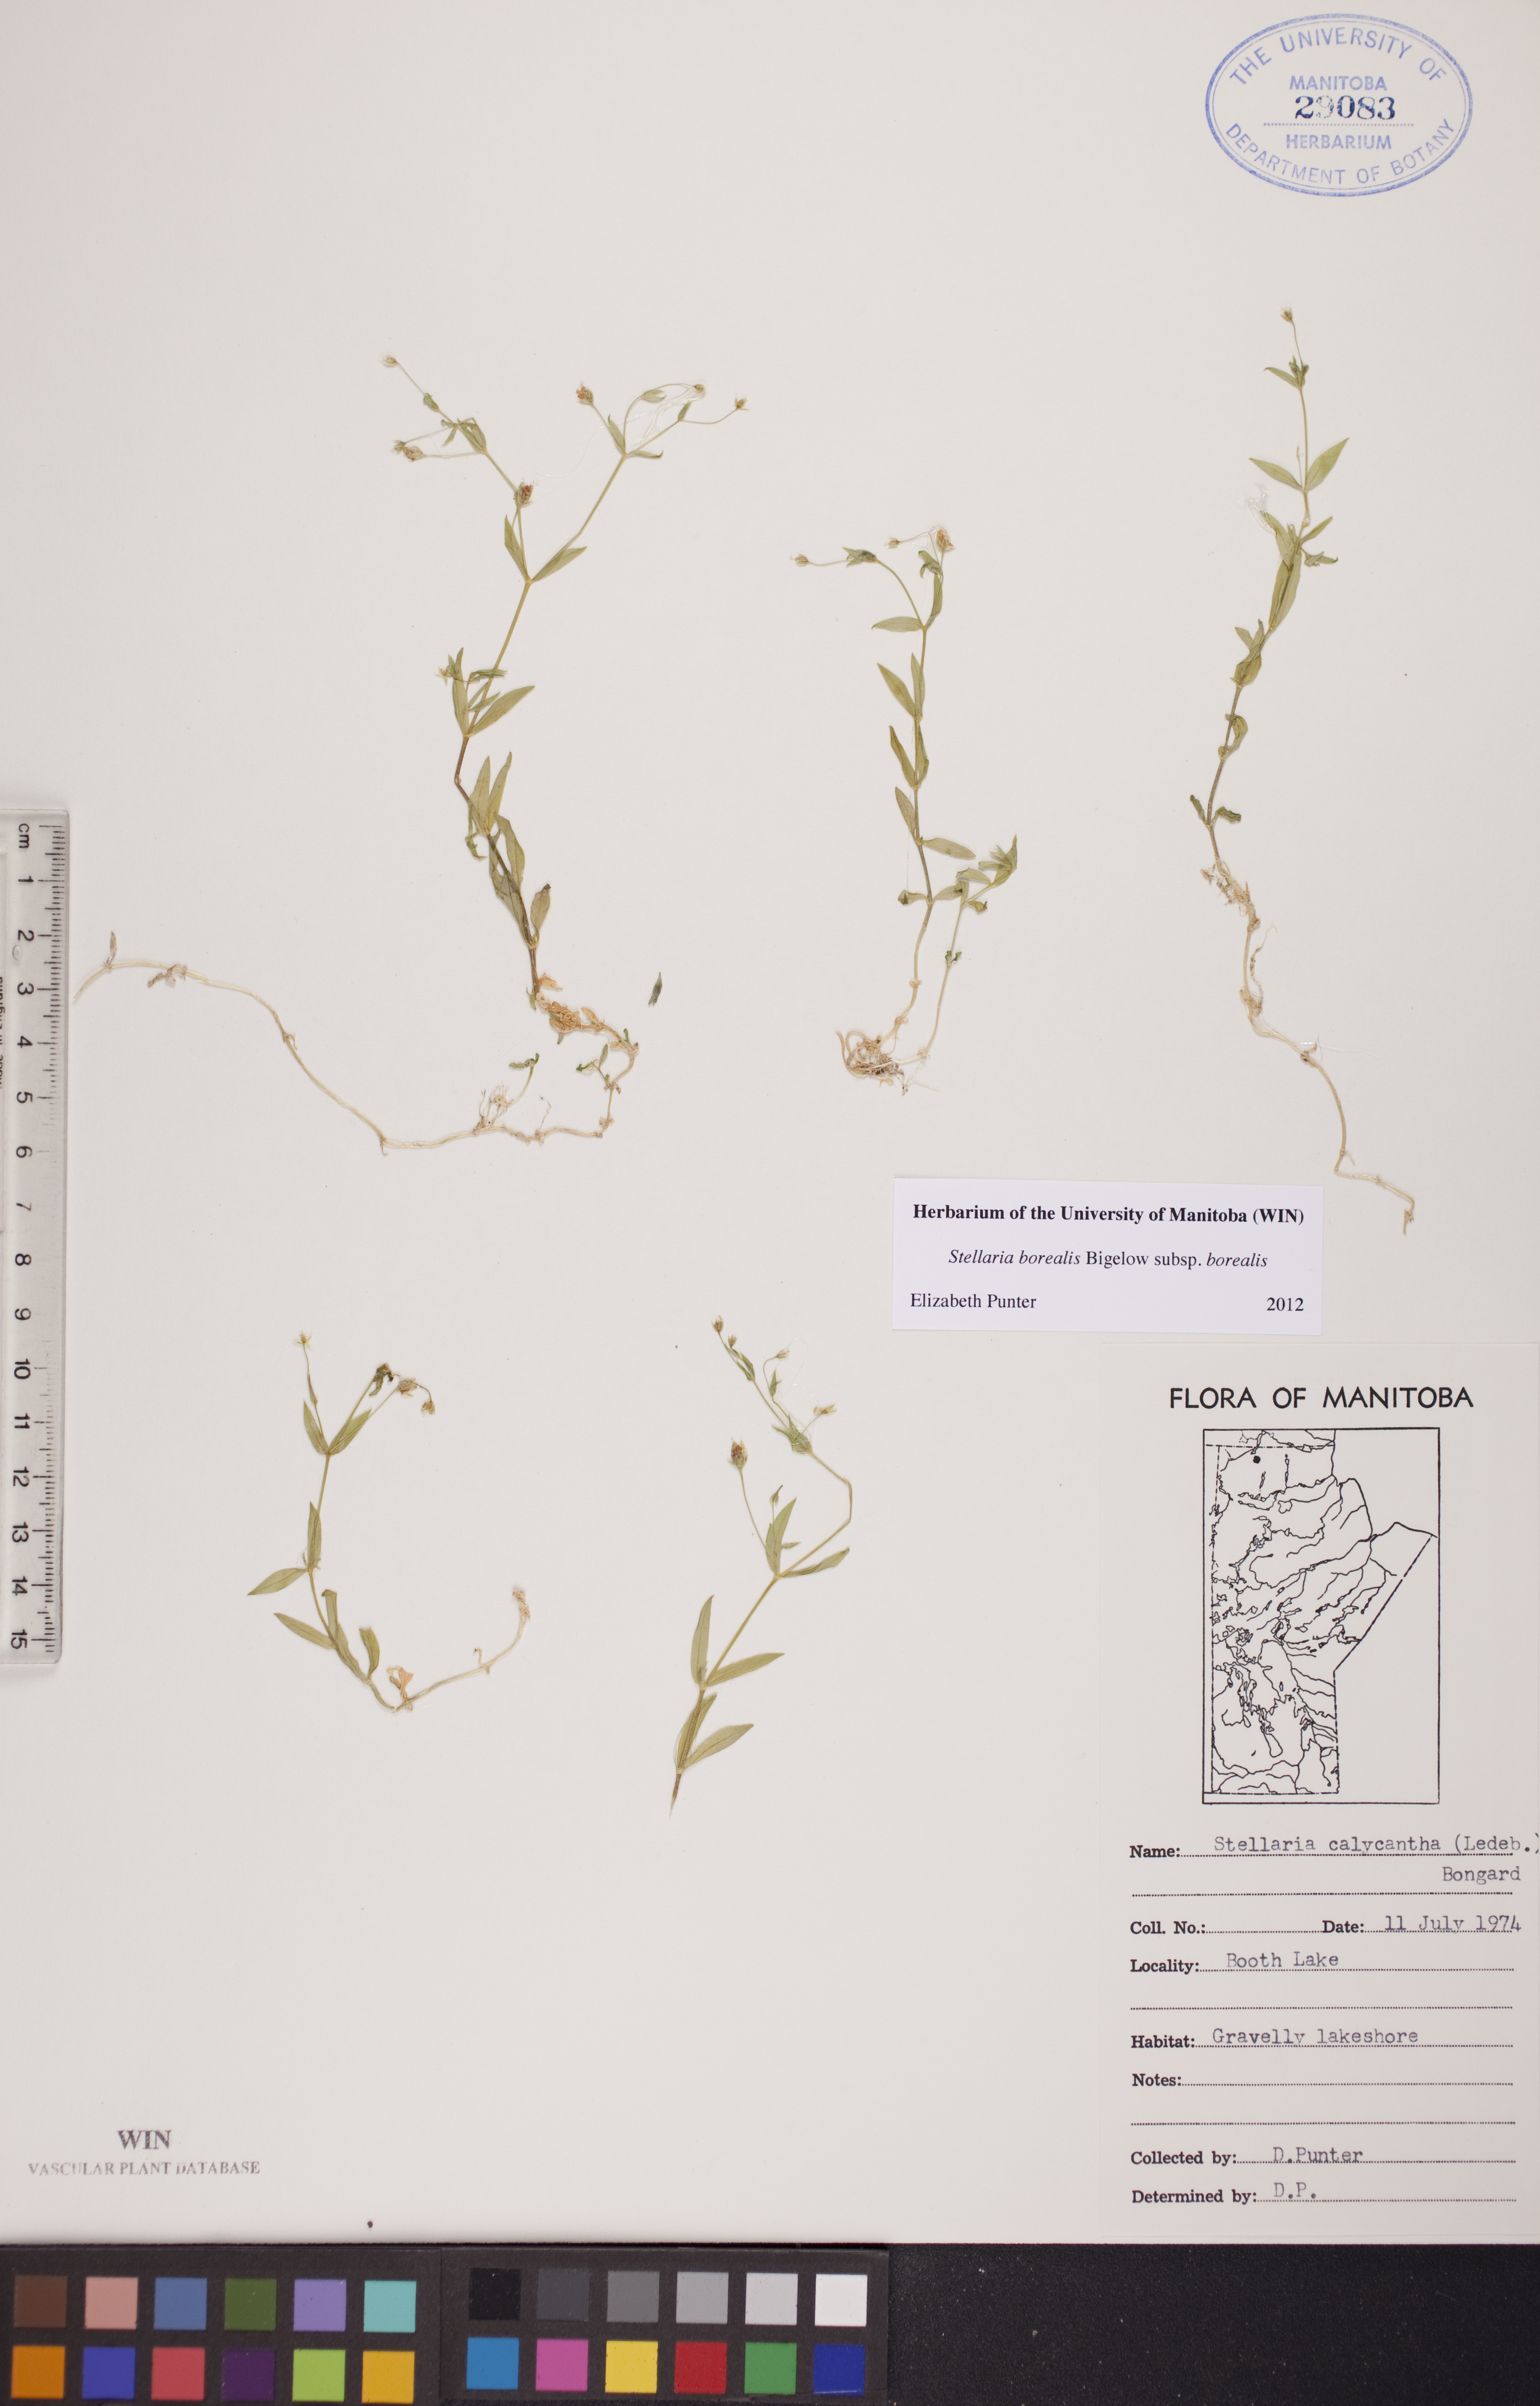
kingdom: Plantae
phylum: Tracheophyta
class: Magnoliopsida
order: Caryophyllales
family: Caryophyllaceae
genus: Stellaria
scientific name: Stellaria borealis
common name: Boreal starwort
